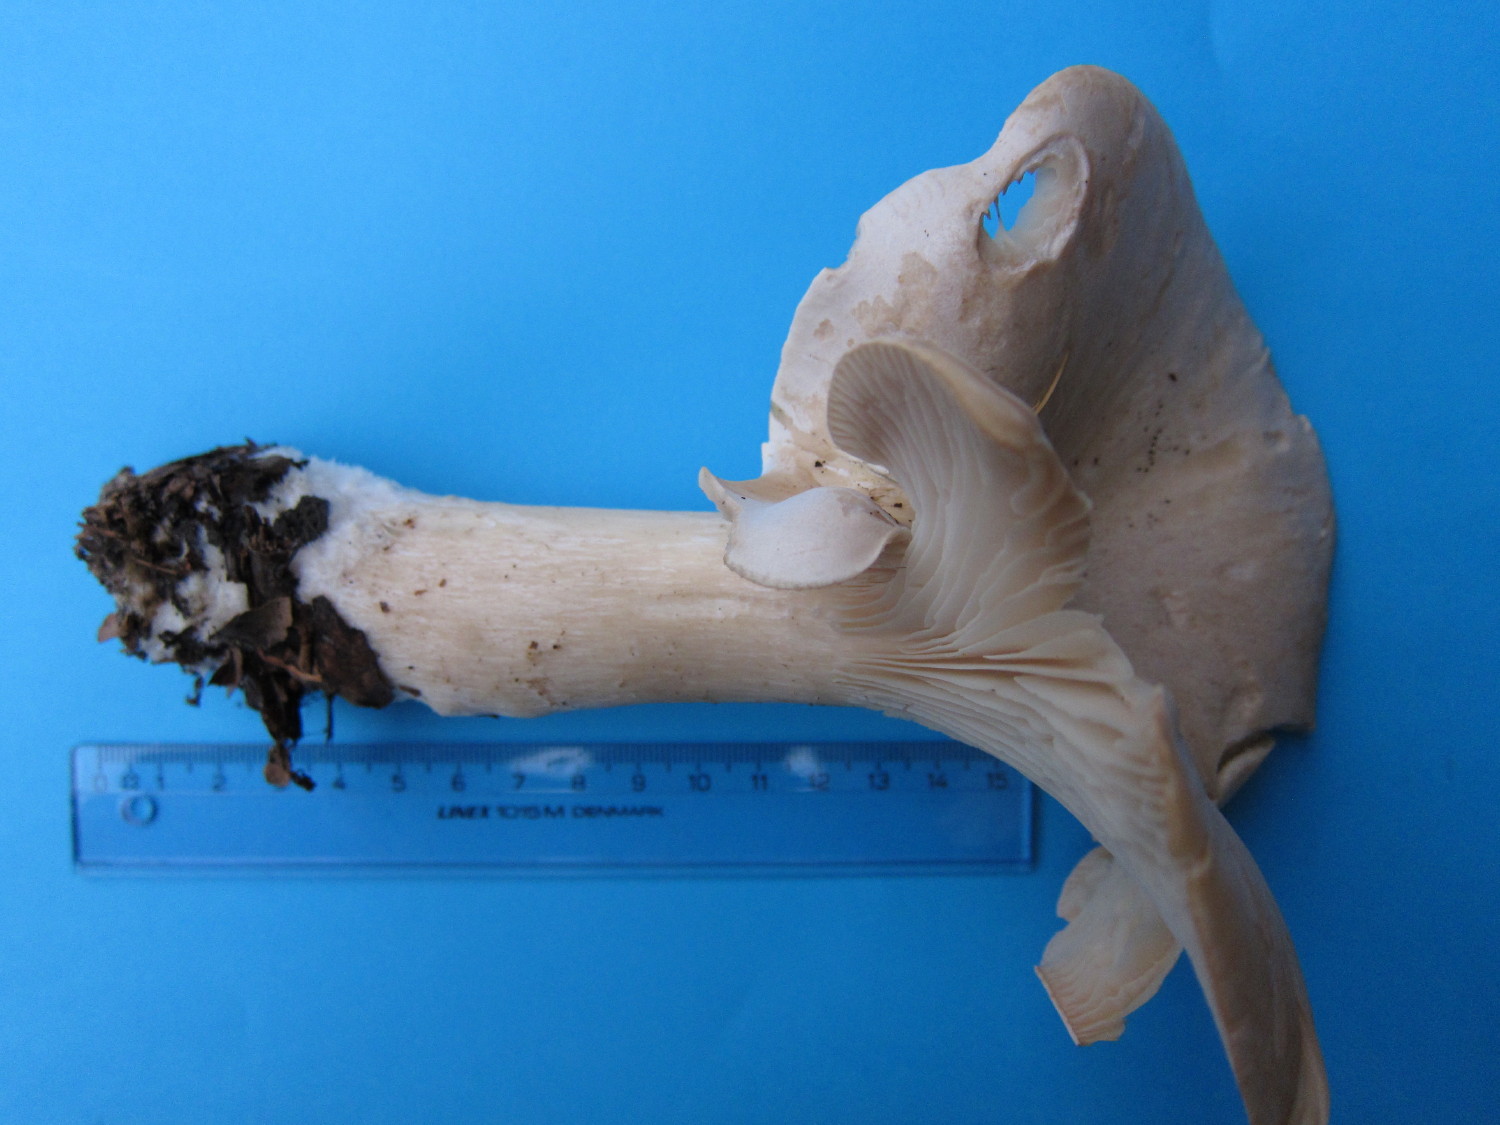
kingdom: Fungi
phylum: Basidiomycota
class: Agaricomycetes
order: Agaricales
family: Tricholomataceae
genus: Infundibulicybe
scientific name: Infundibulicybe geotropa
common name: stor tragthat
